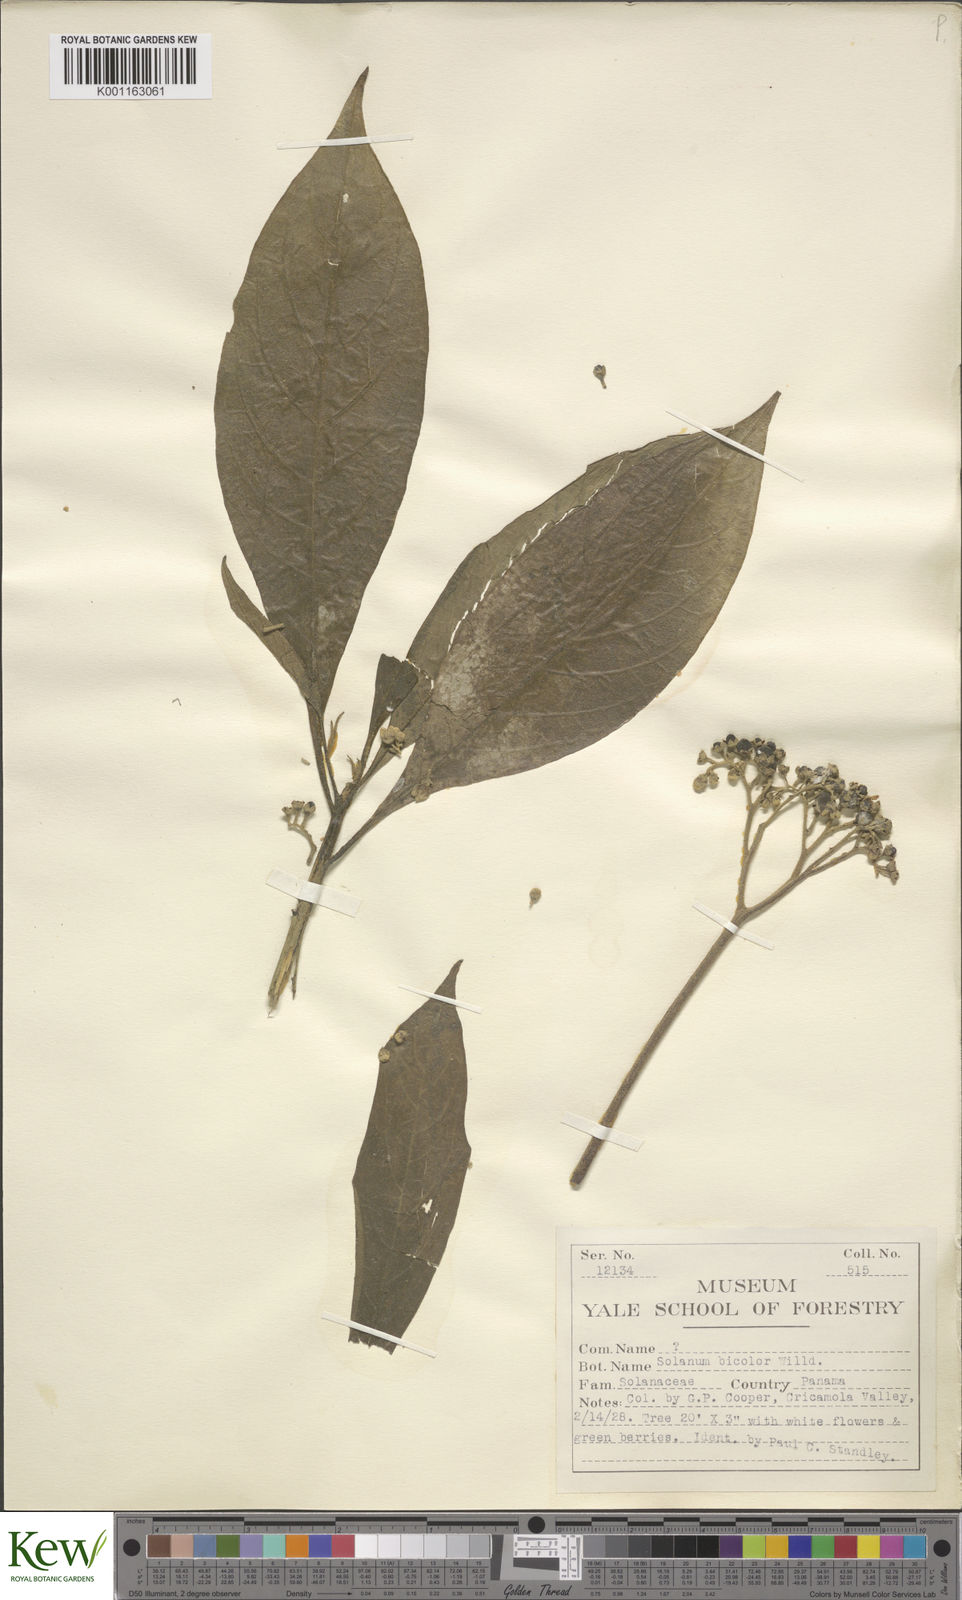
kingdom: Plantae
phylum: Tracheophyta
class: Magnoliopsida
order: Solanales
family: Solanaceae
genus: Solanum
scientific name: Solanum bicolor
